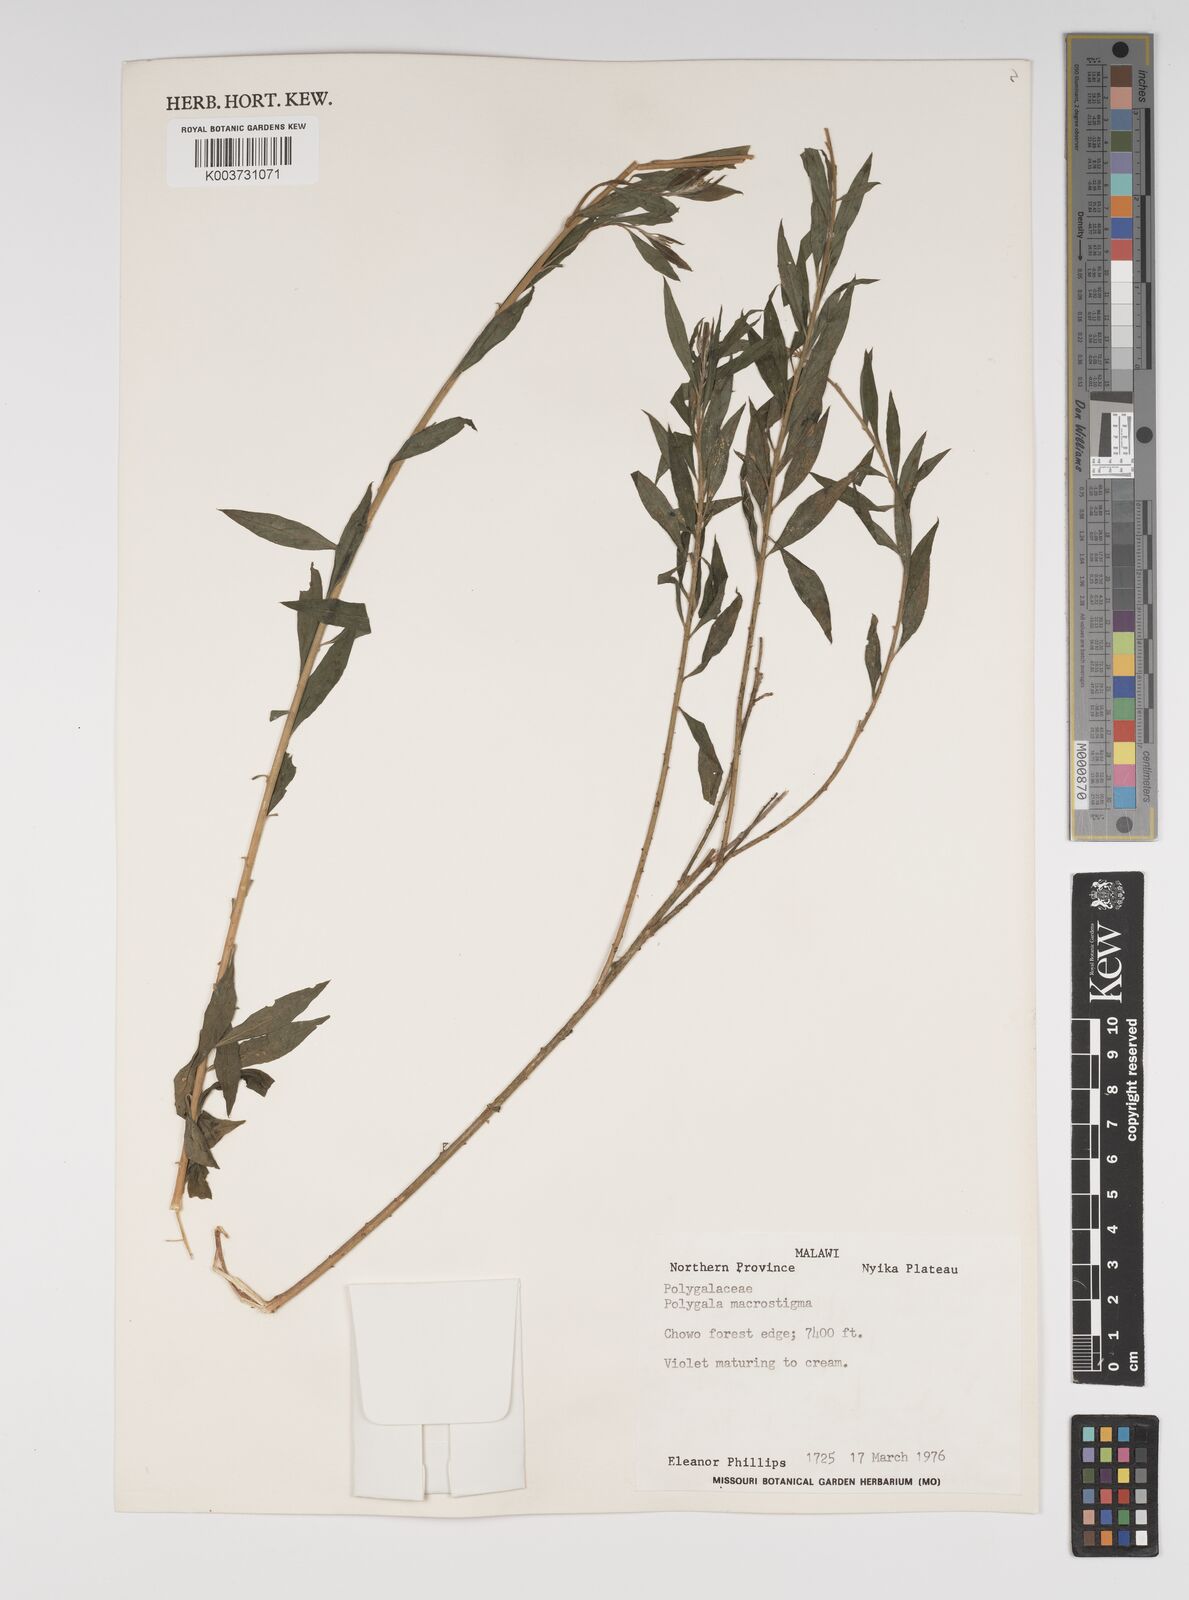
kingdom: Plantae
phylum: Tracheophyta
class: Magnoliopsida
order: Fabales
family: Polygalaceae
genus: Polygala
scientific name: Polygala macrostigma
